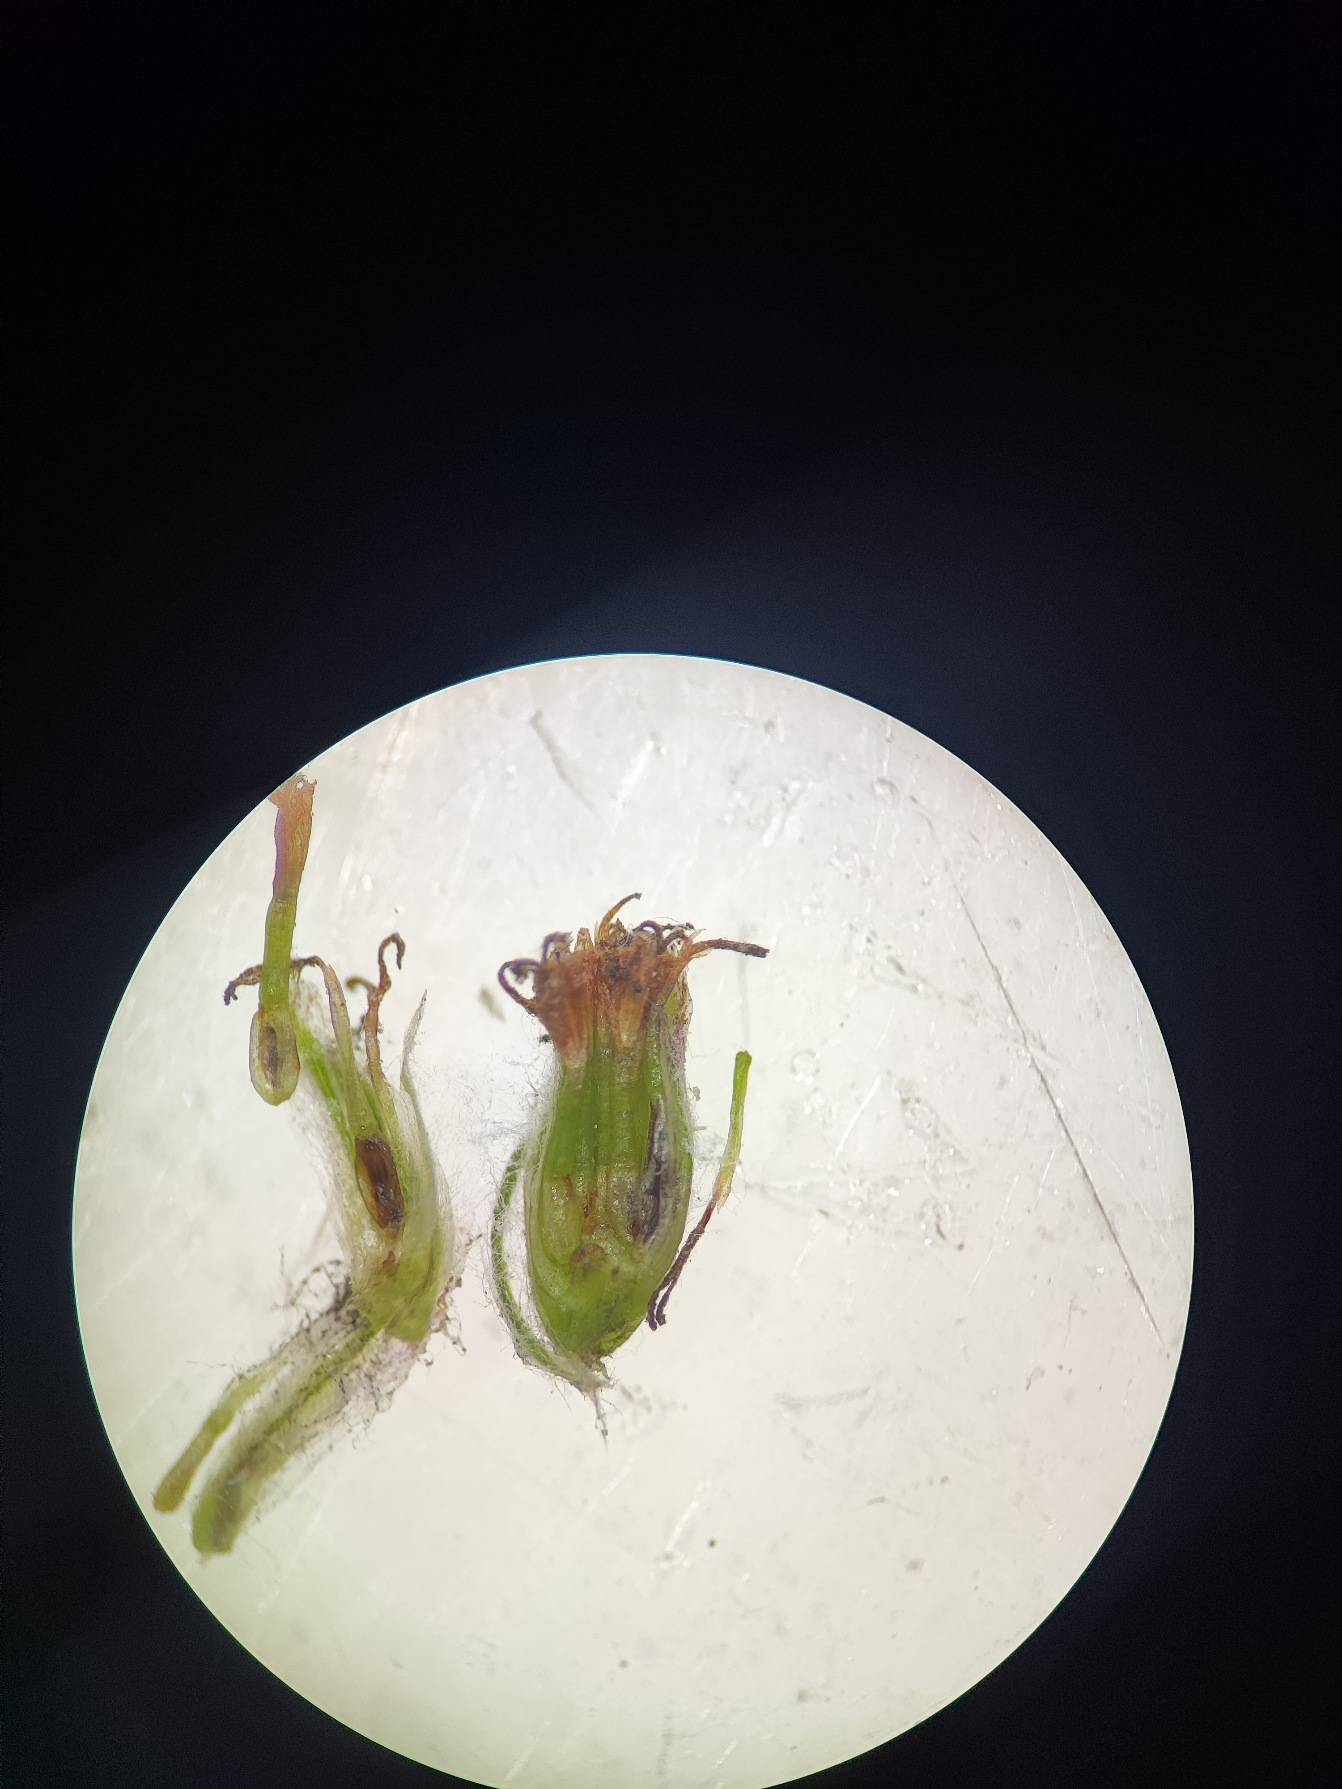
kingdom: Animalia
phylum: Arthropoda
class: Insecta
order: Diptera
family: Cecidomyiidae
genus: Dasineura
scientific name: Dasineura
